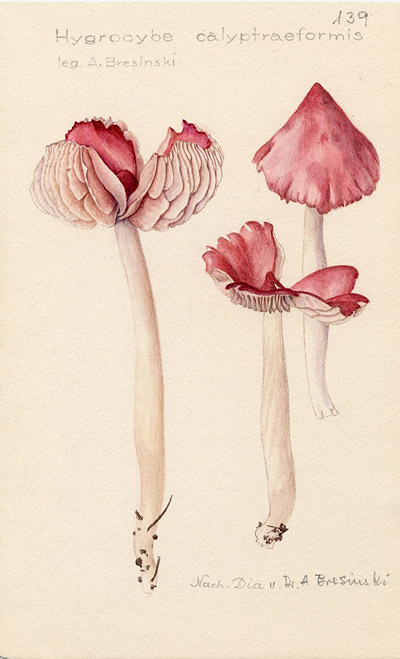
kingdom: Fungi
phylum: Basidiomycota
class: Agaricomycetes
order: Agaricales
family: Hygrophoraceae
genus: Porpolomopsis
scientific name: Porpolomopsis calyptriformis
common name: Pink waxcap
